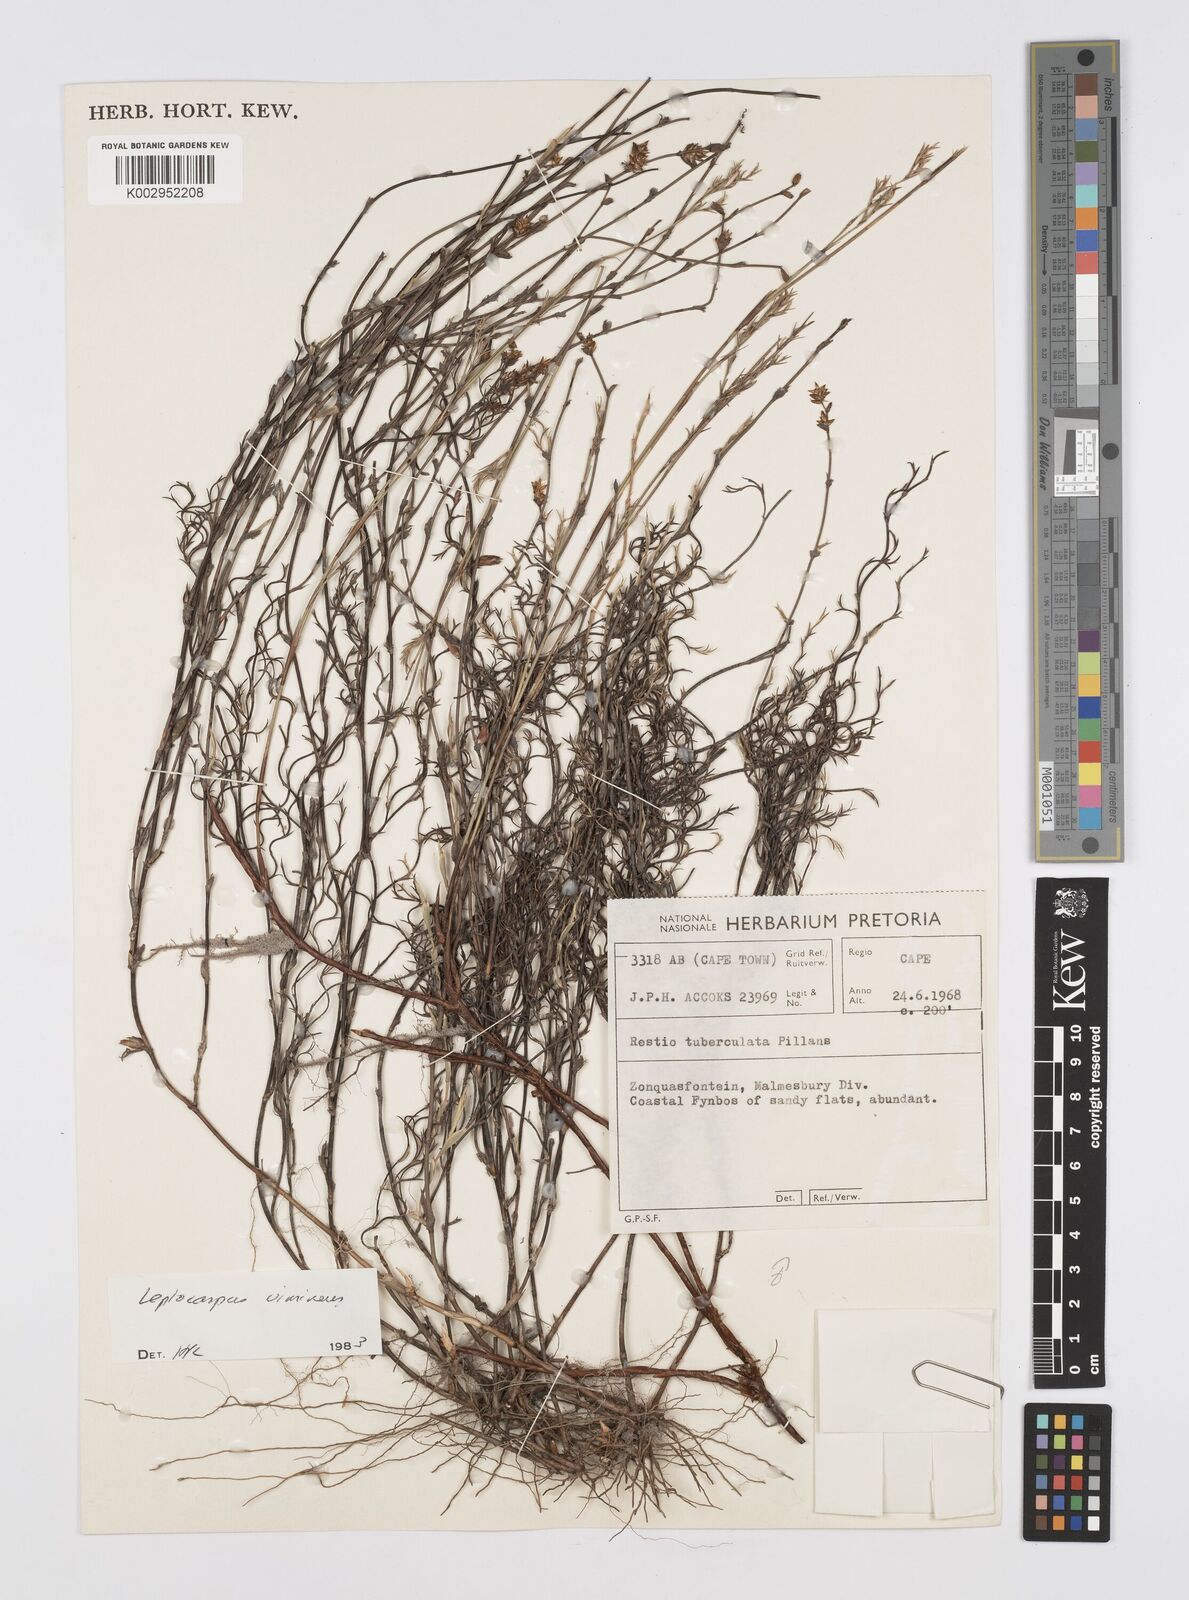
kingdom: Plantae
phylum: Tracheophyta
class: Liliopsida
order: Poales
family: Restionaceae
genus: Restio
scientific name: Restio vimineus
